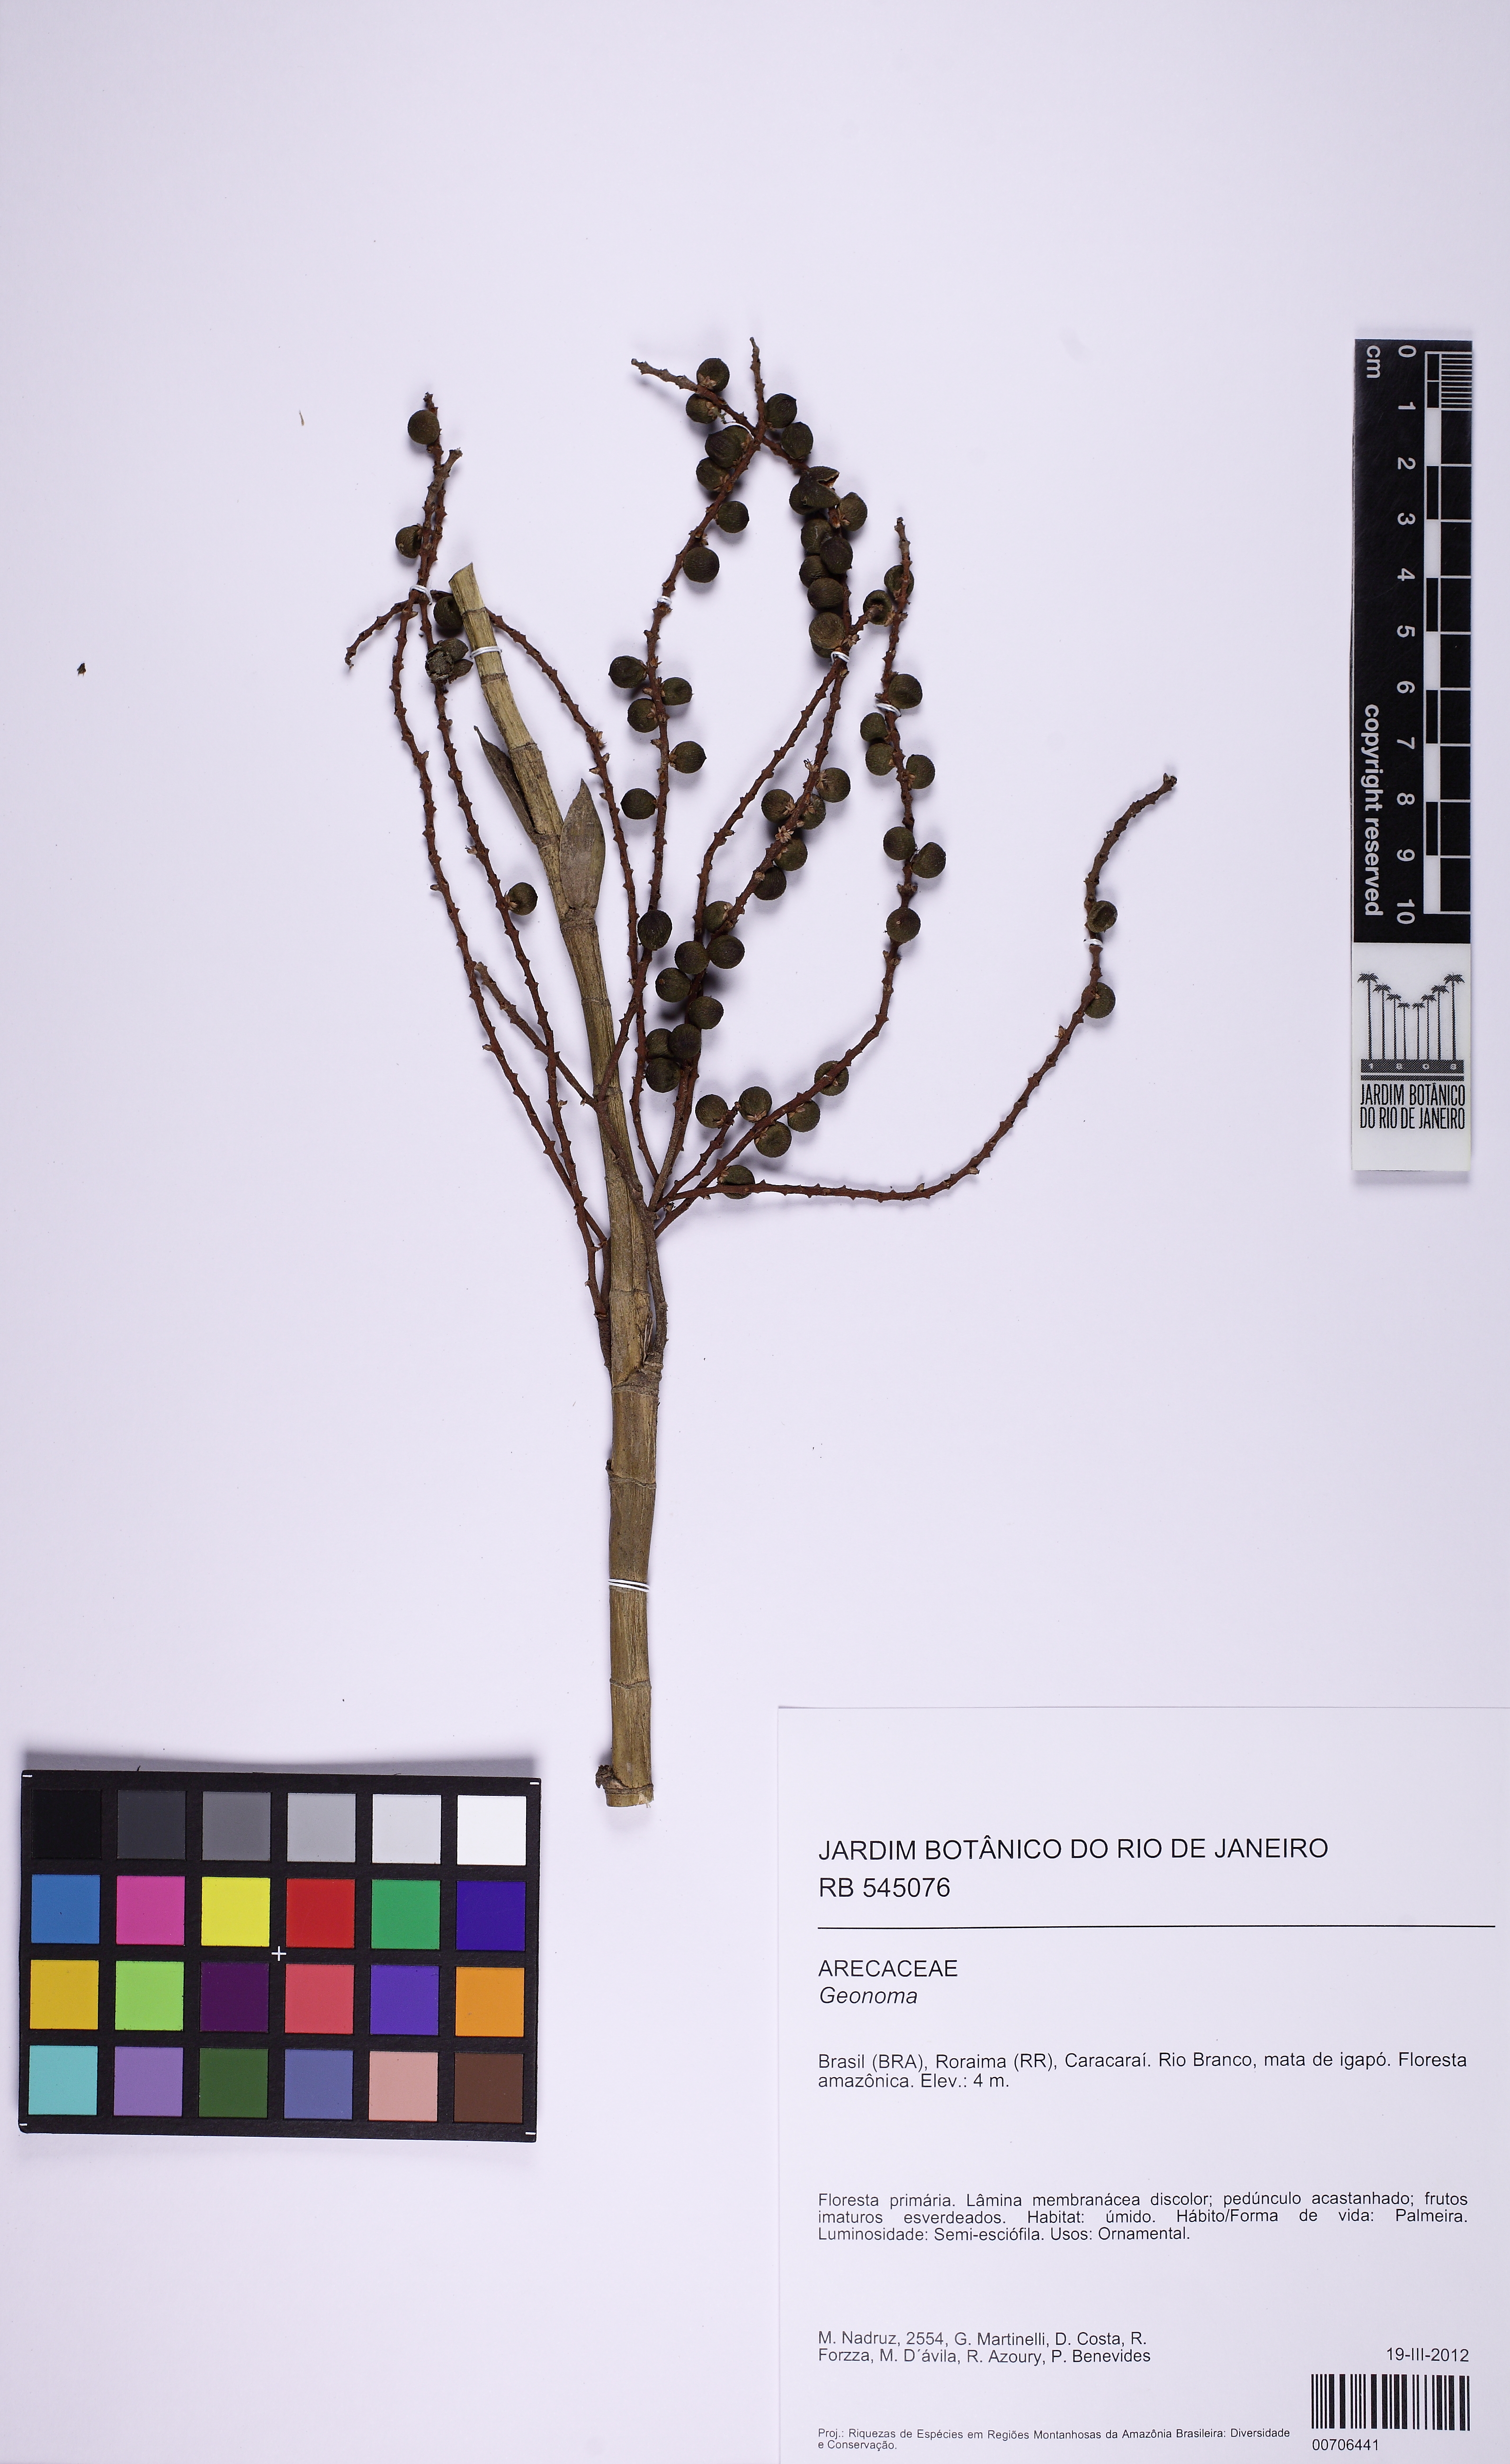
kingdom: Plantae
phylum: Tracheophyta
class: Liliopsida
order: Arecales
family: Arecaceae
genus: Geonoma
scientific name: Geonoma
